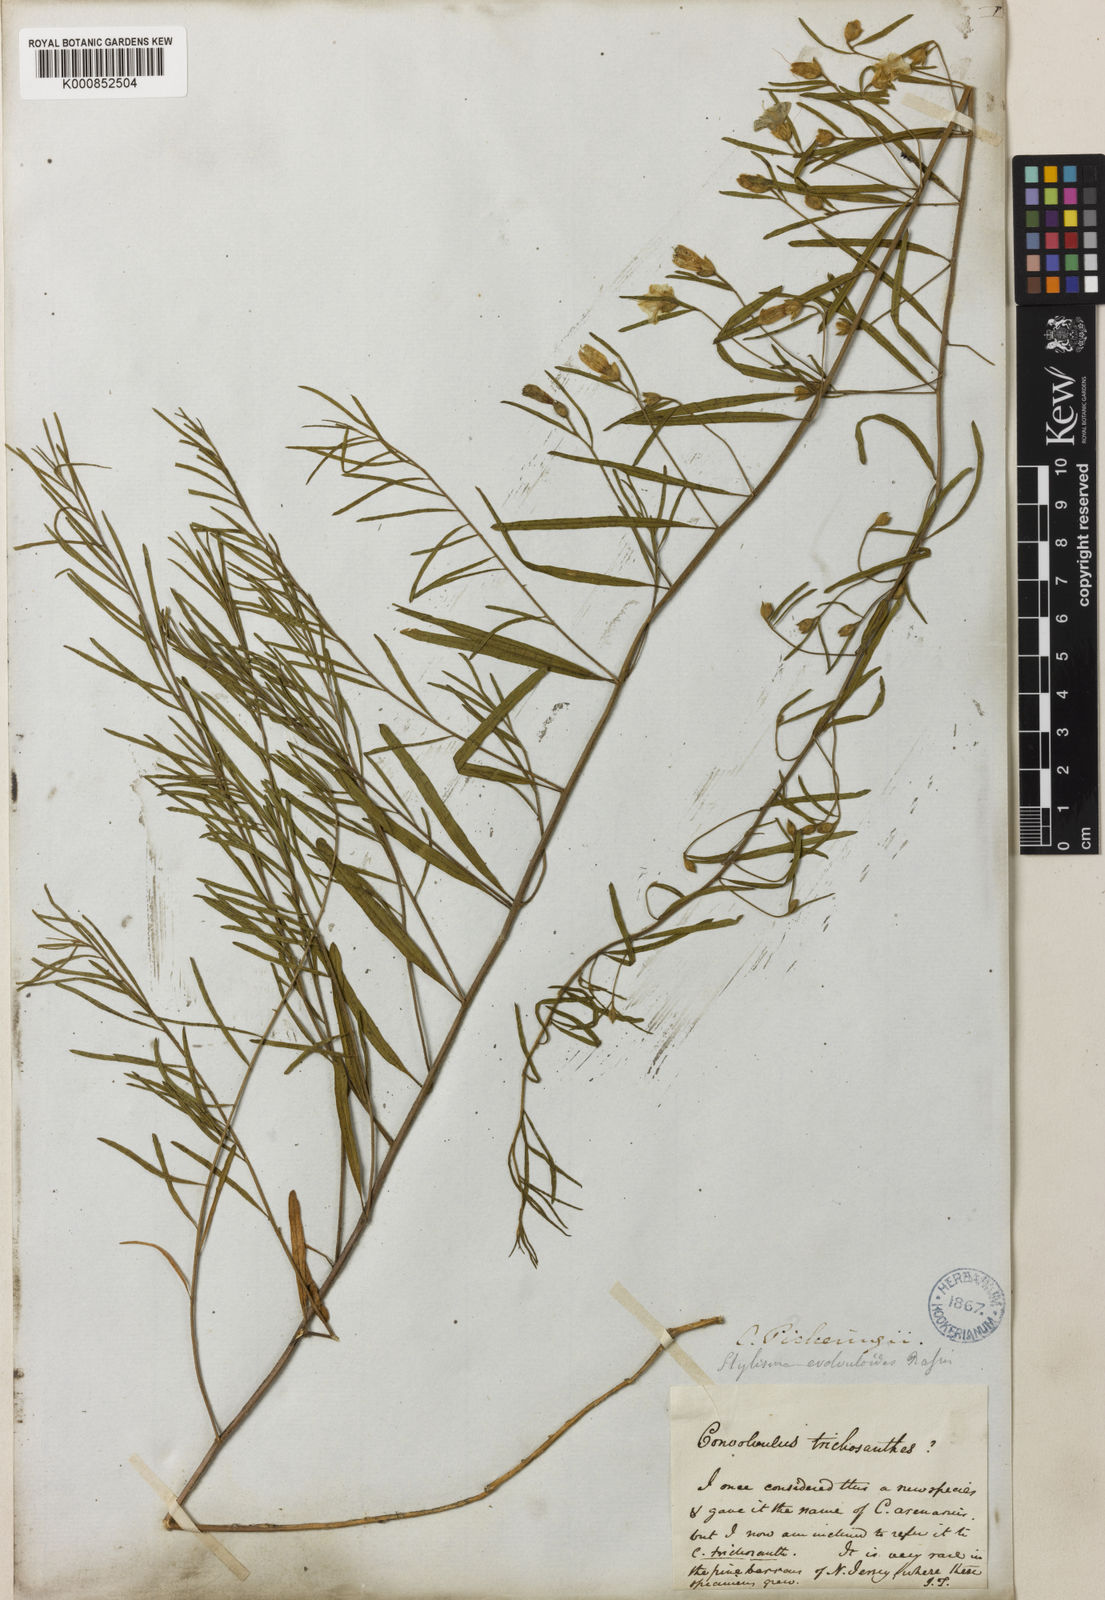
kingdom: Plantae
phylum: Tracheophyta
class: Magnoliopsida
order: Solanales
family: Convolvulaceae
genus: Stylisma
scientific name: Stylisma pickeringii
